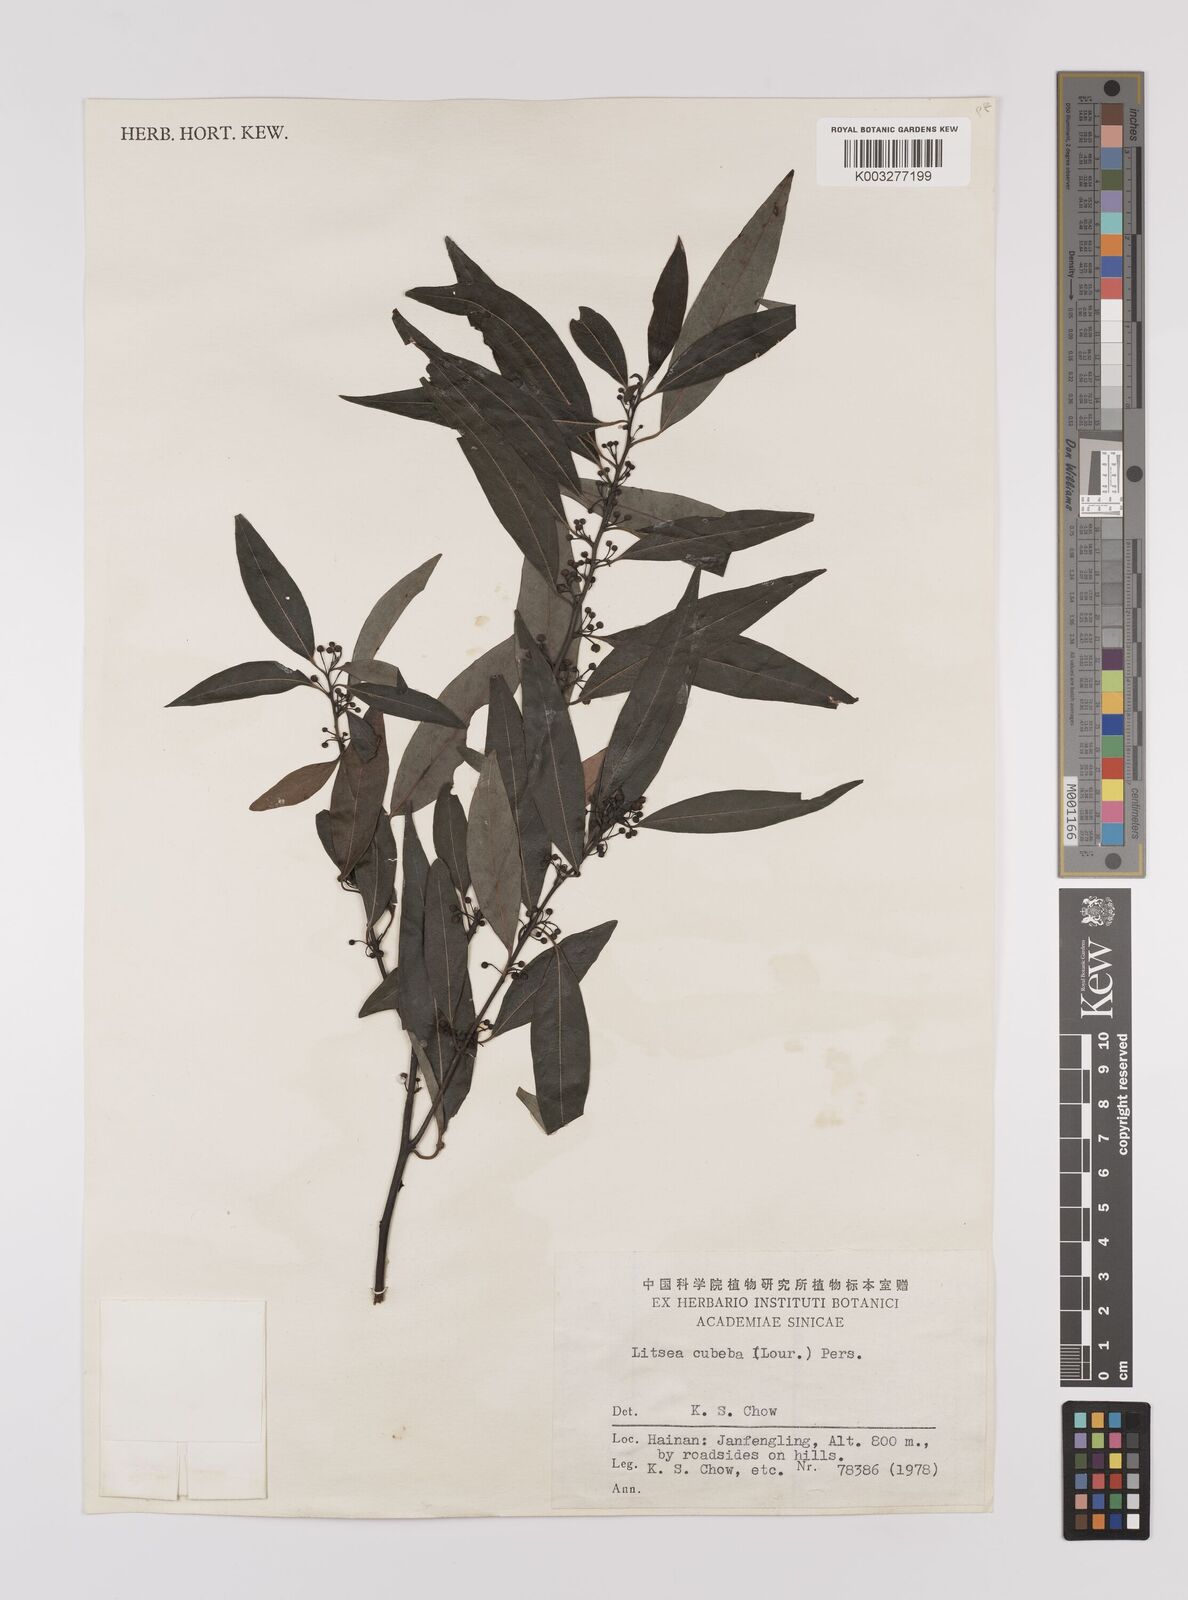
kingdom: Plantae
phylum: Tracheophyta
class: Magnoliopsida
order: Laurales
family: Lauraceae
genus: Litsea
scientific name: Litsea cubeba
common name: Mountain-pepper
